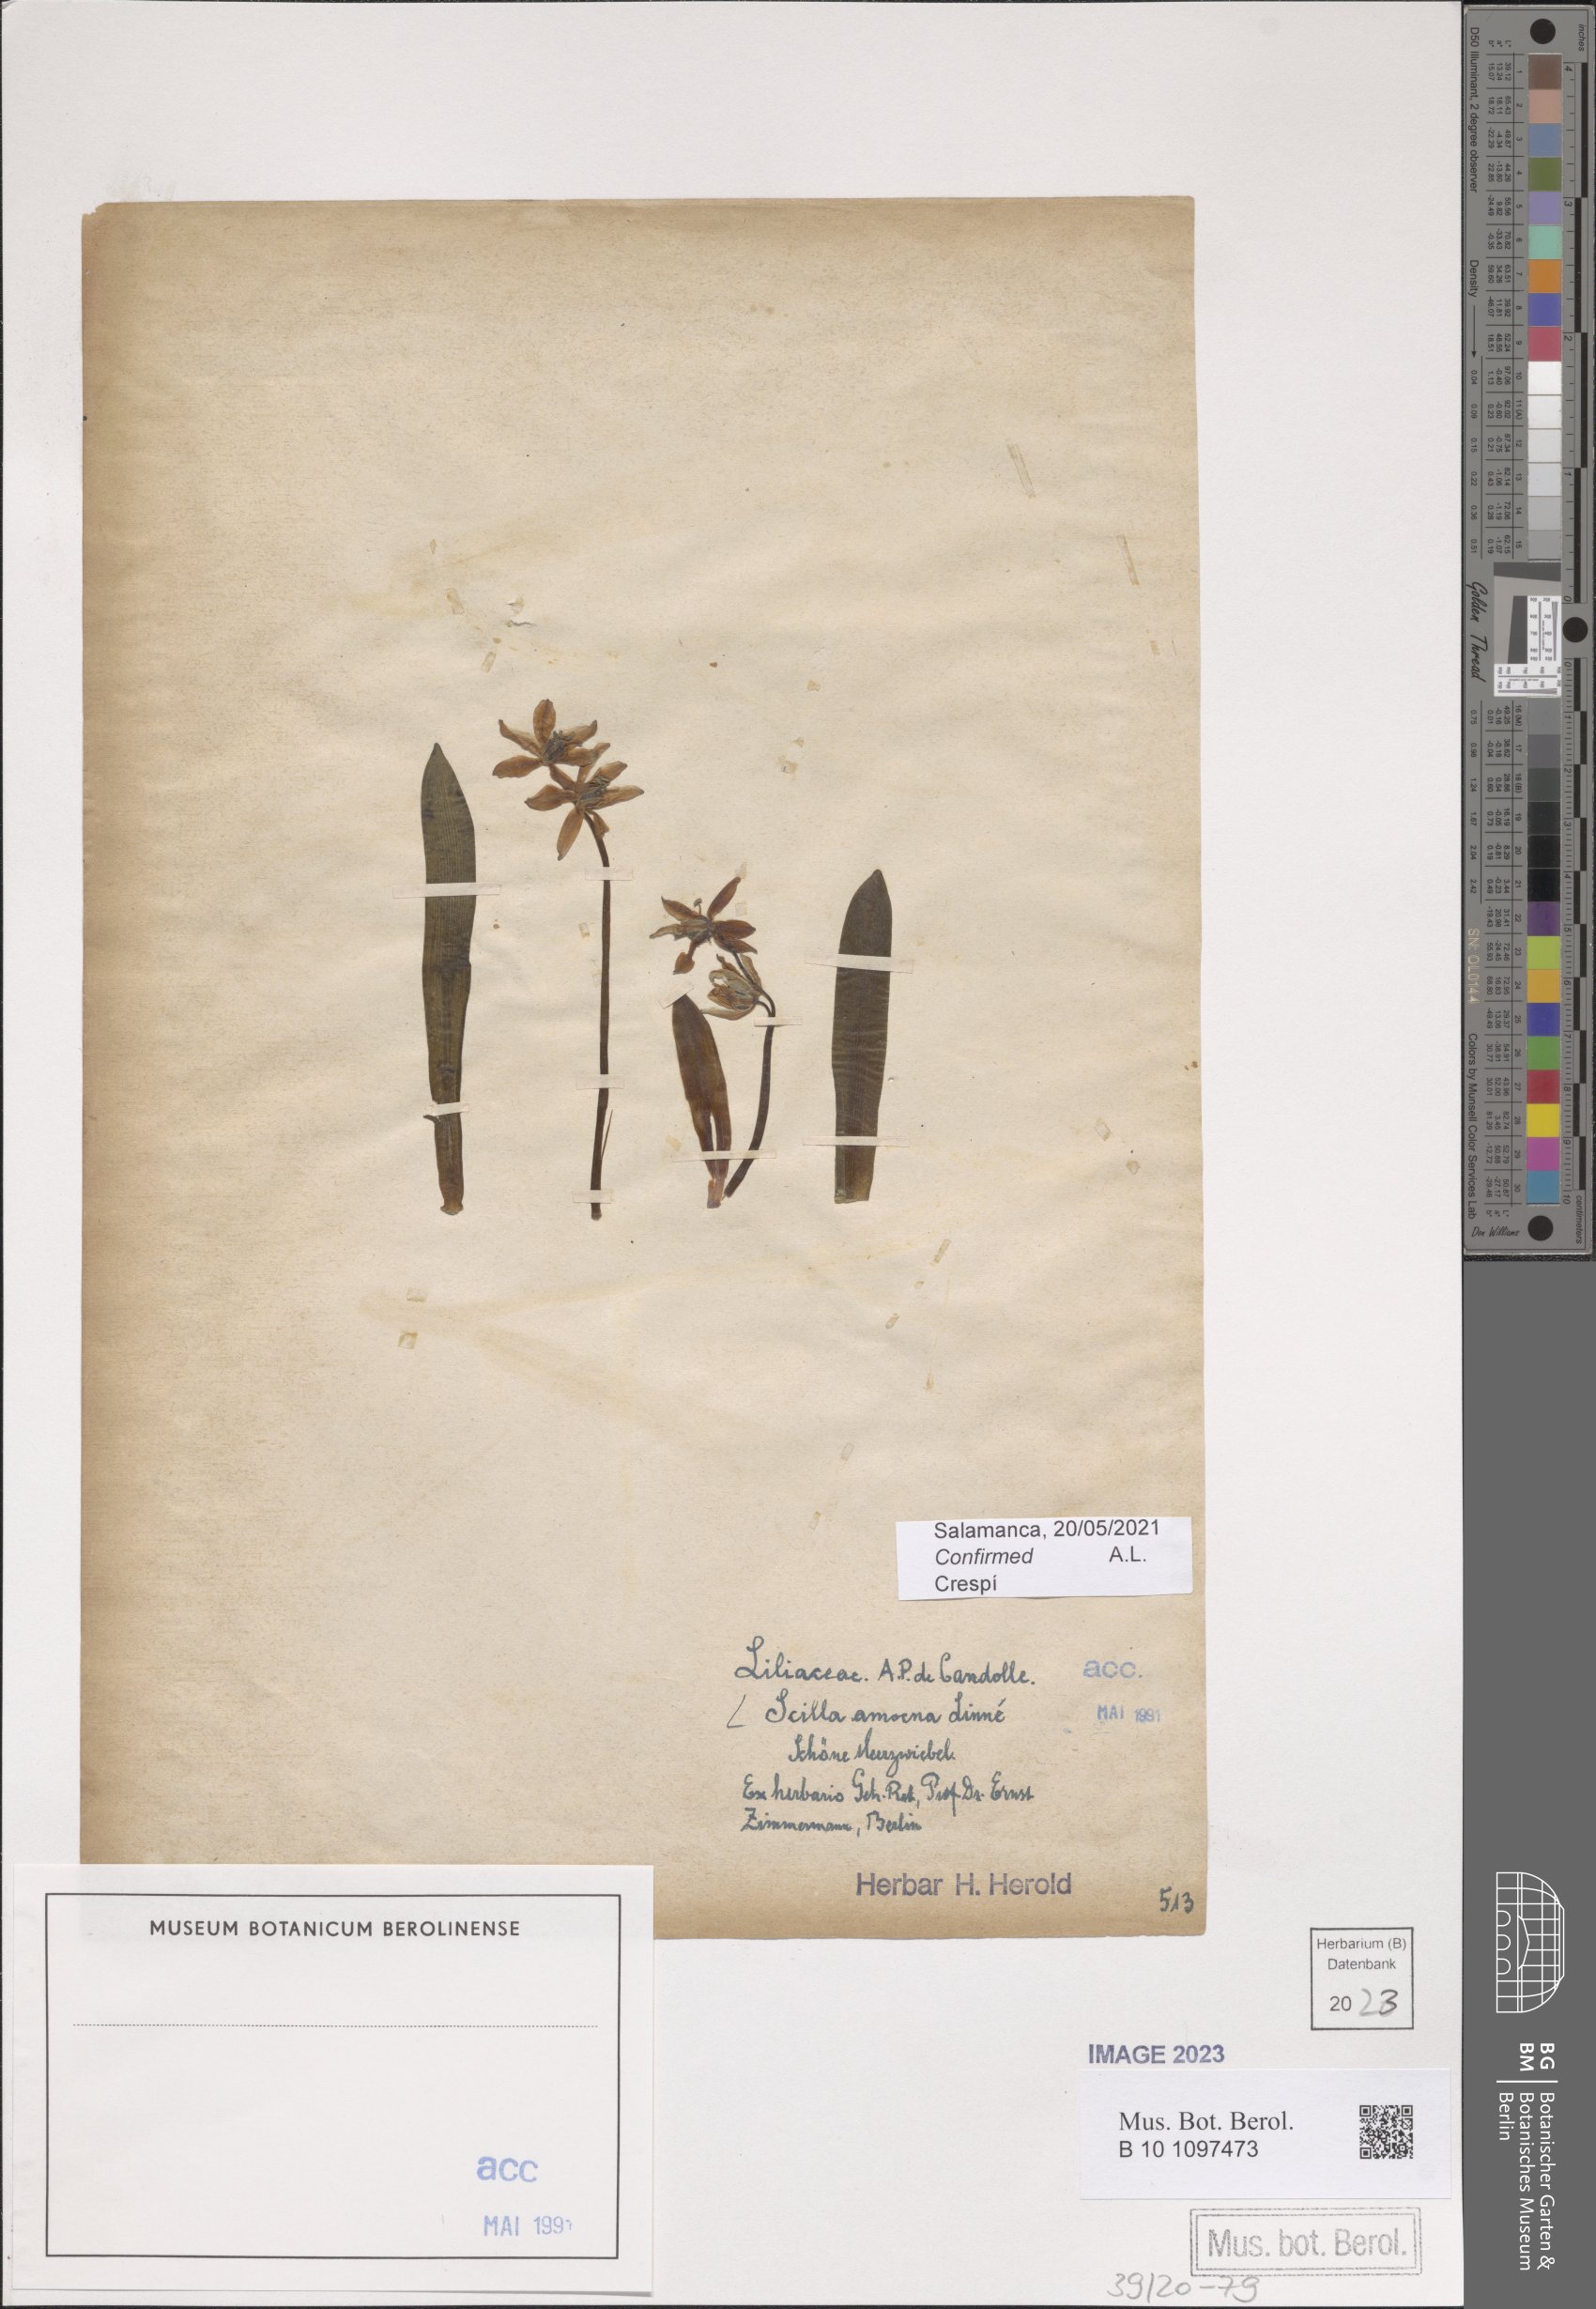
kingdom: Plantae
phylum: Tracheophyta
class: Liliopsida
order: Asparagales
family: Asparagaceae
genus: Scilla
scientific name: Scilla amoena
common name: Star-hyacinth
